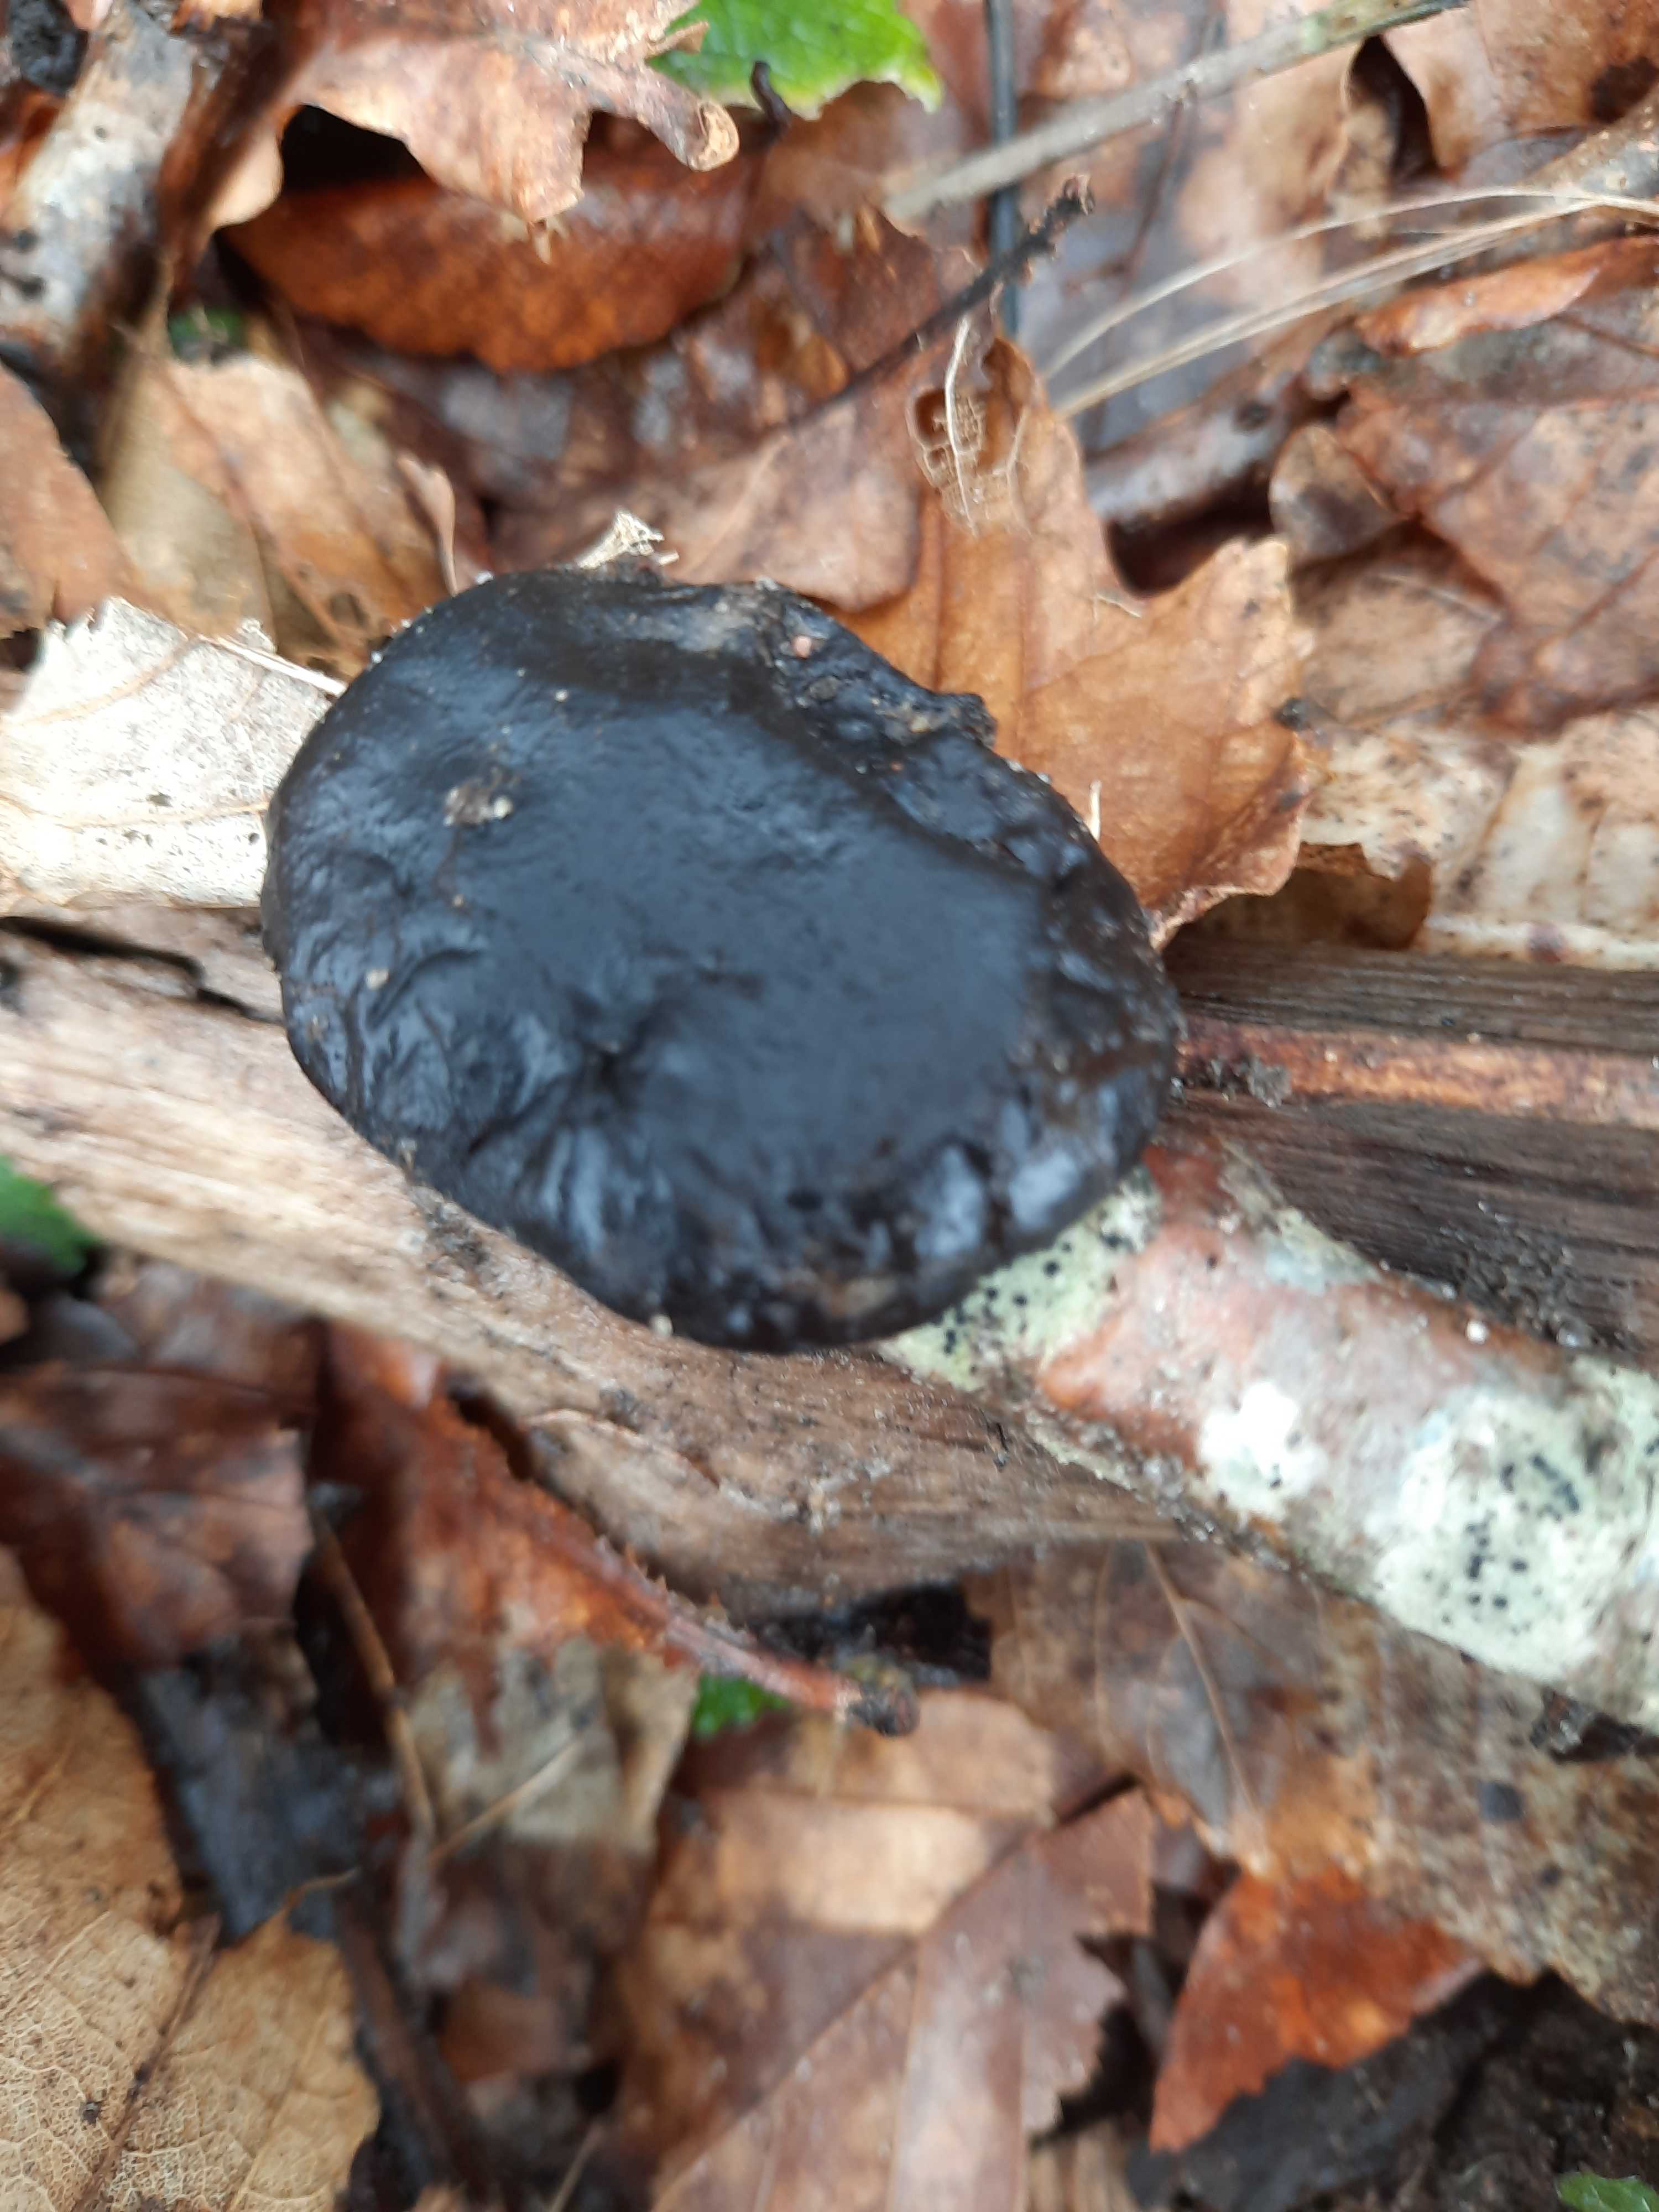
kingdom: Fungi
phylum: Basidiomycota
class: Agaricomycetes
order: Auriculariales
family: Auriculariaceae
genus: Exidia
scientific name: Exidia glandulosa
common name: ege-bævretop
